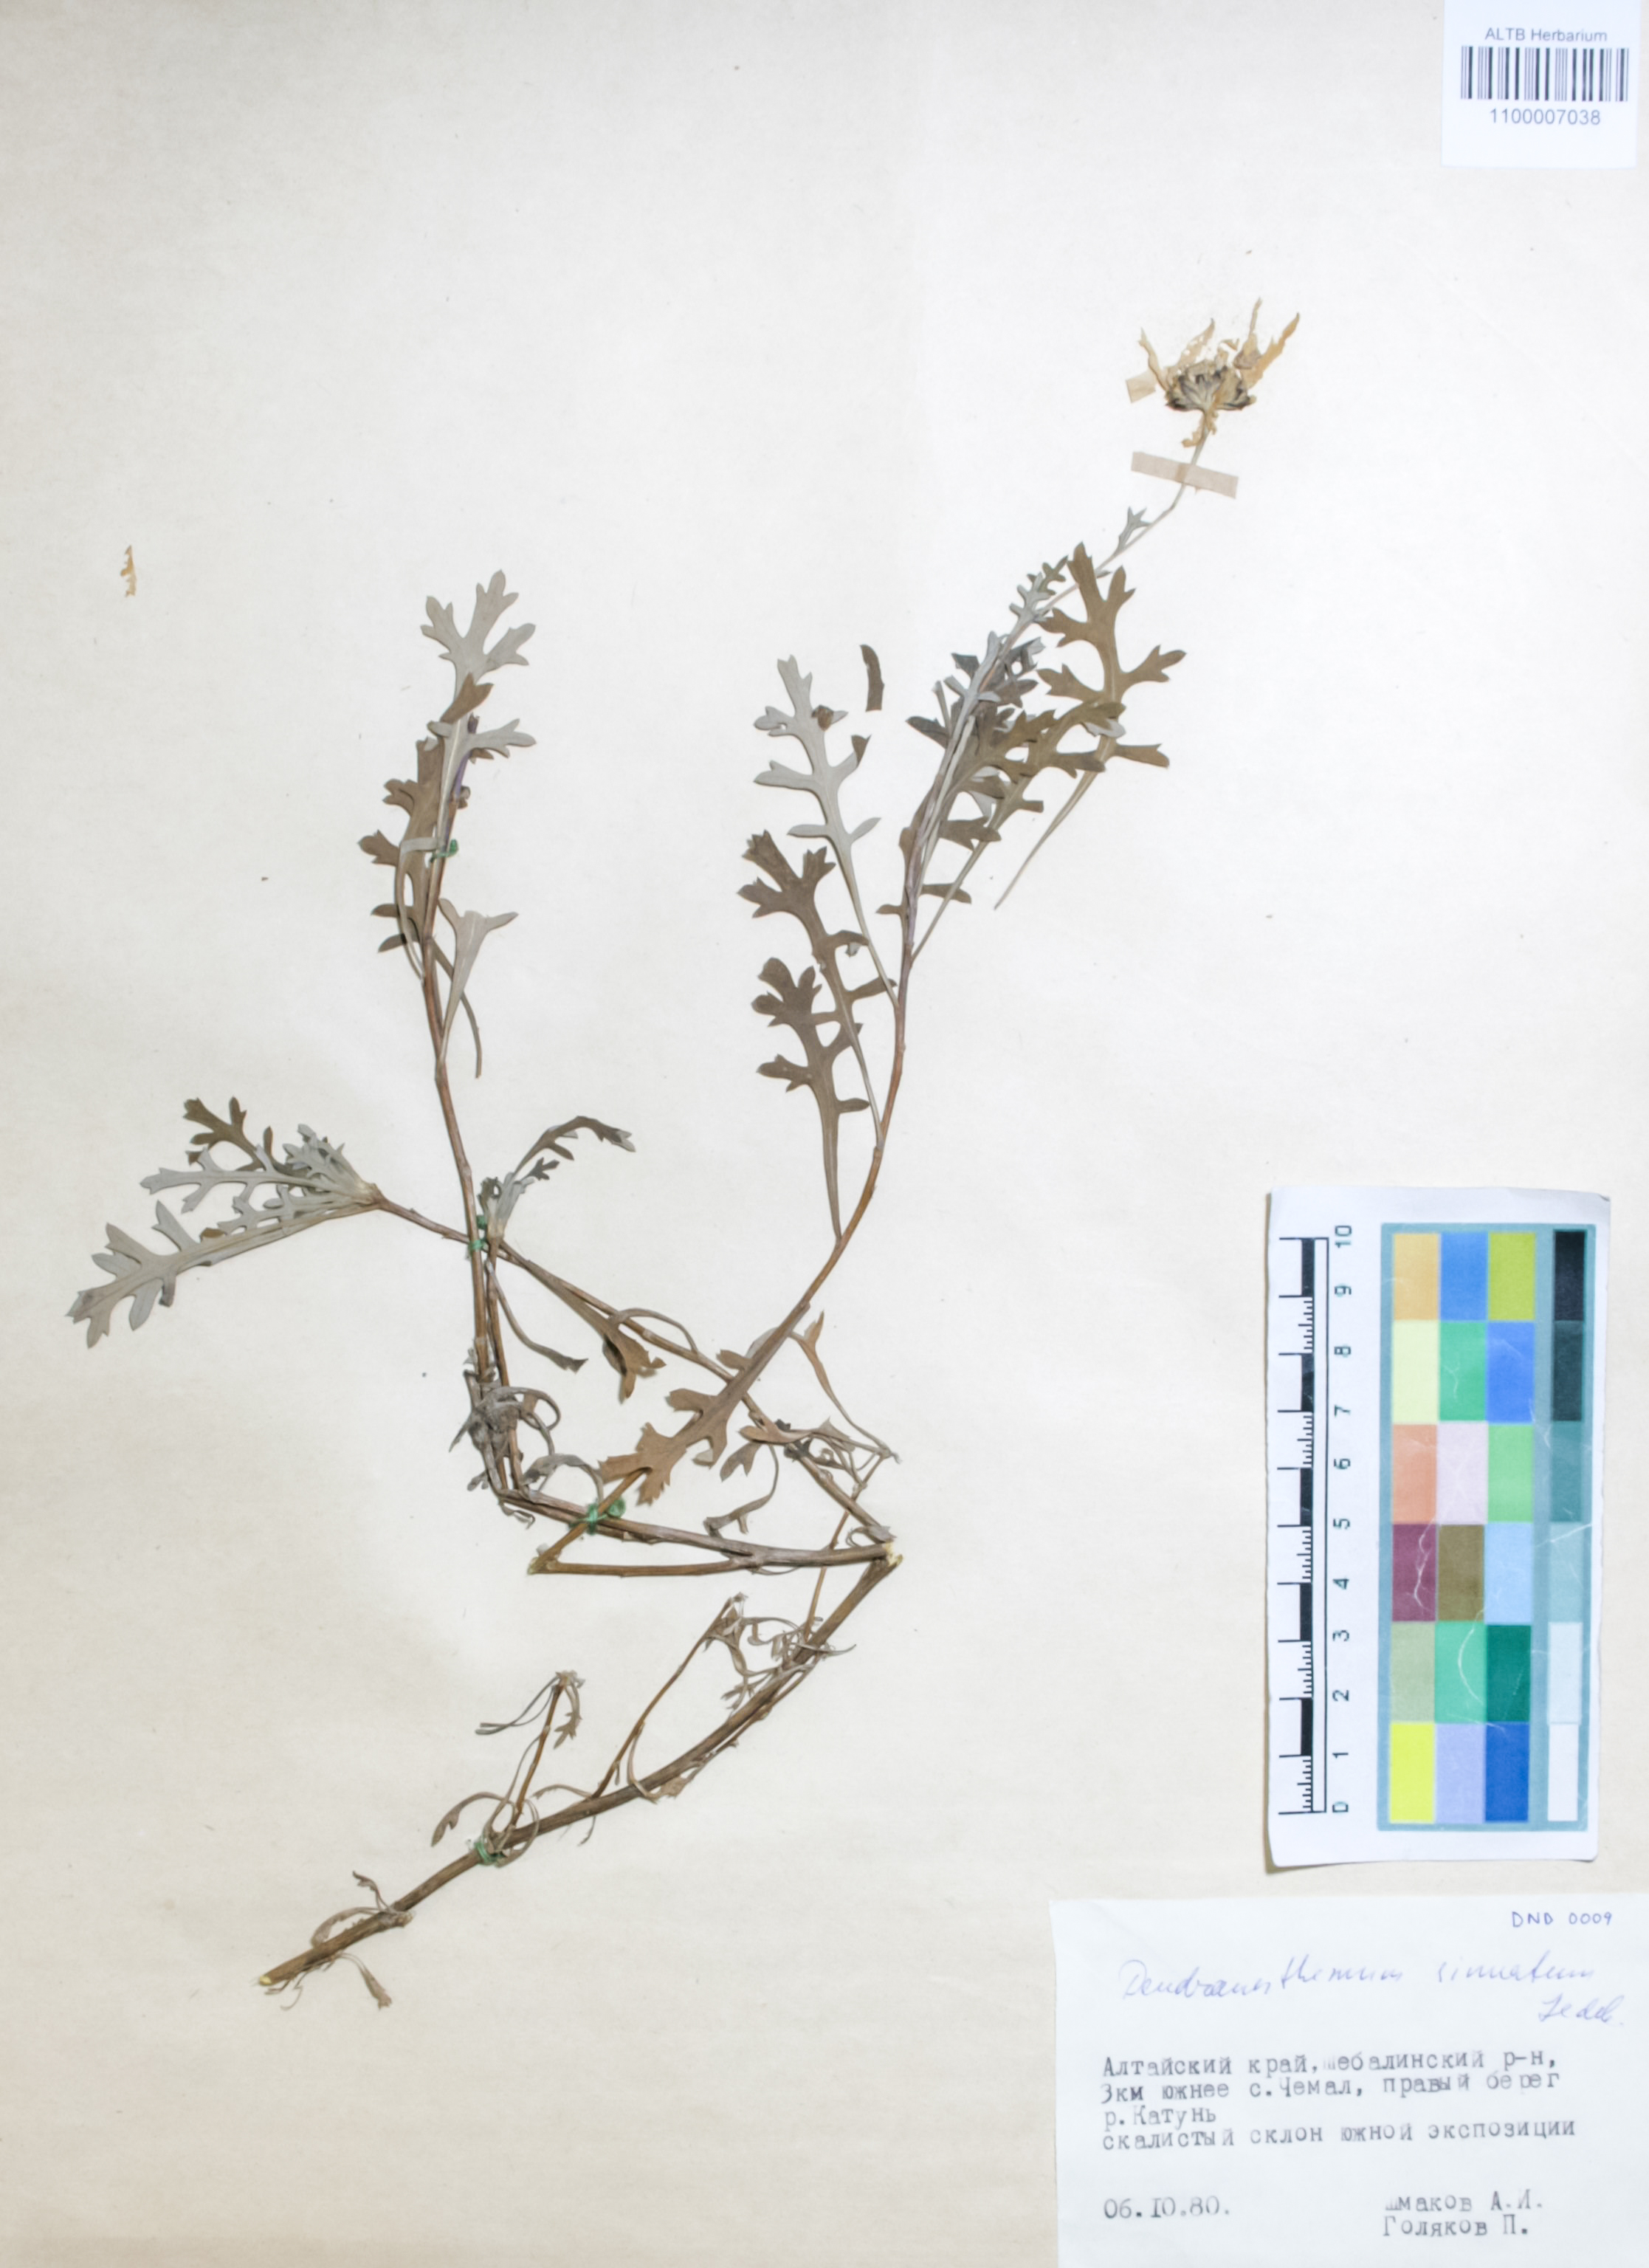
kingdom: Plantae
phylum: Tracheophyta
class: Magnoliopsida
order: Asterales
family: Asteraceae
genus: Chrysanthemum
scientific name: Chrysanthemum sinuatum
